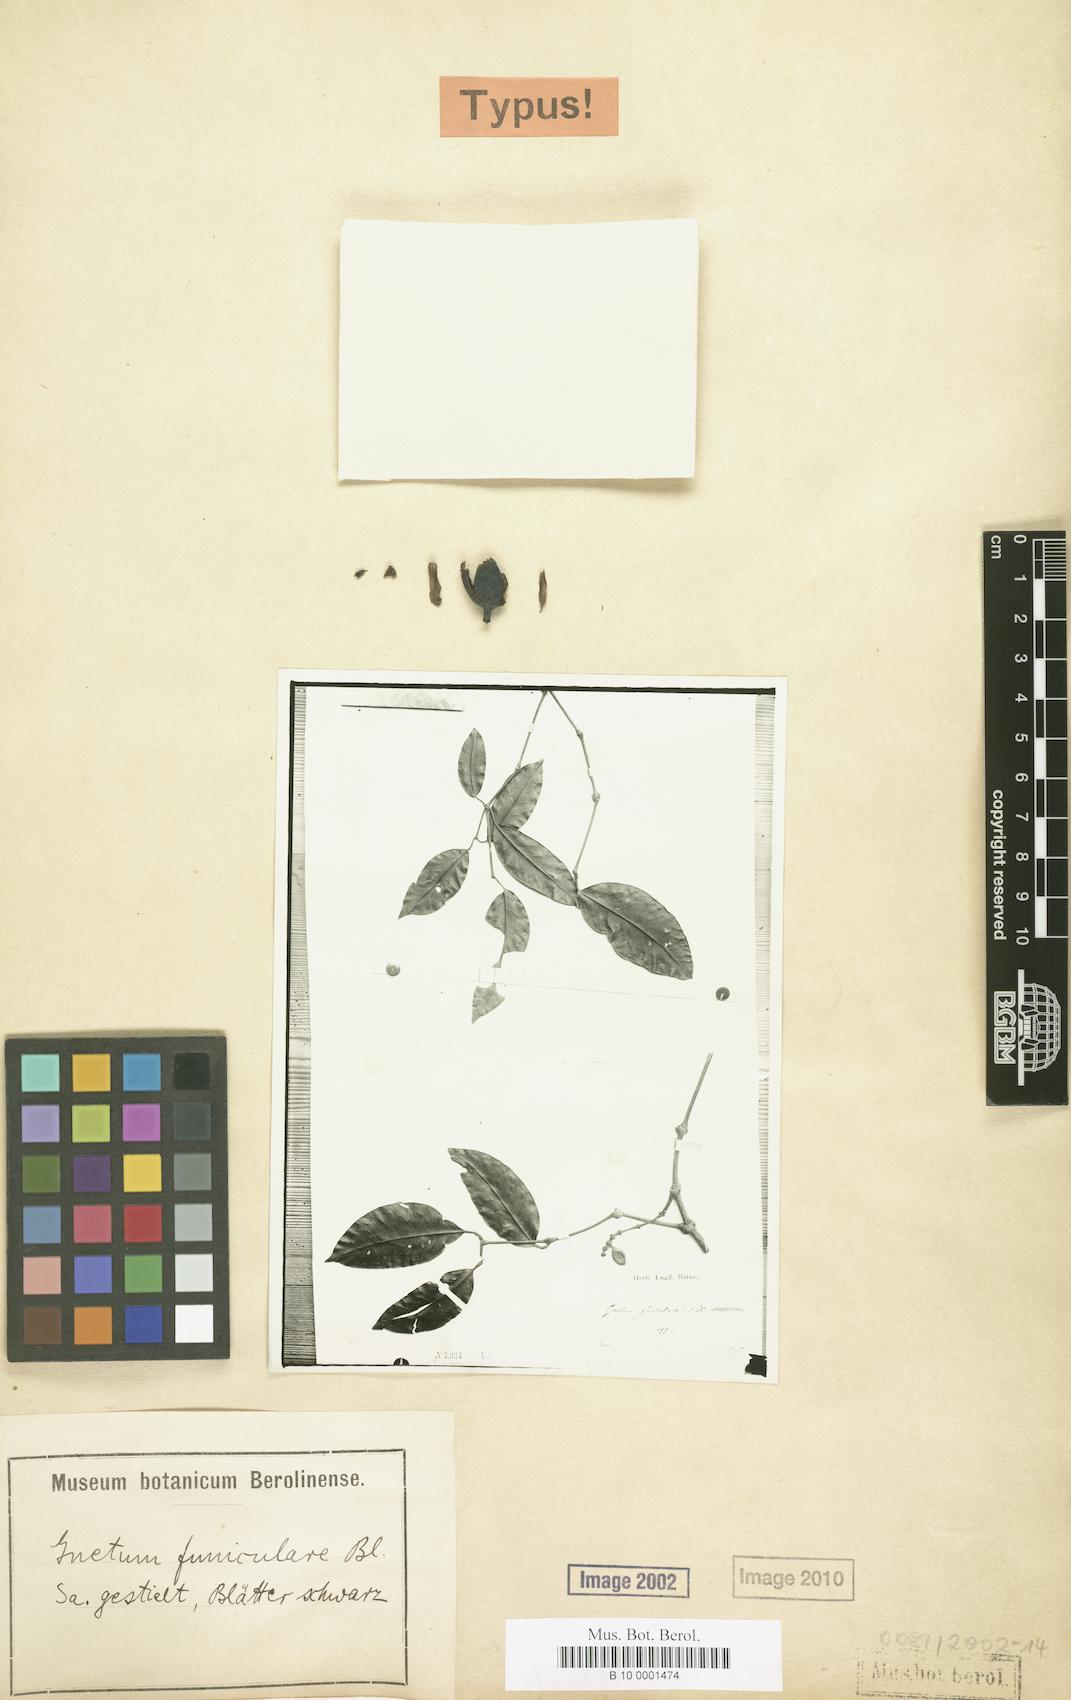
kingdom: Plantae
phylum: Tracheophyta
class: Gnetopsida
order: Gnetales
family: Gnetaceae
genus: Gnetum
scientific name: Gnetum funiculare
